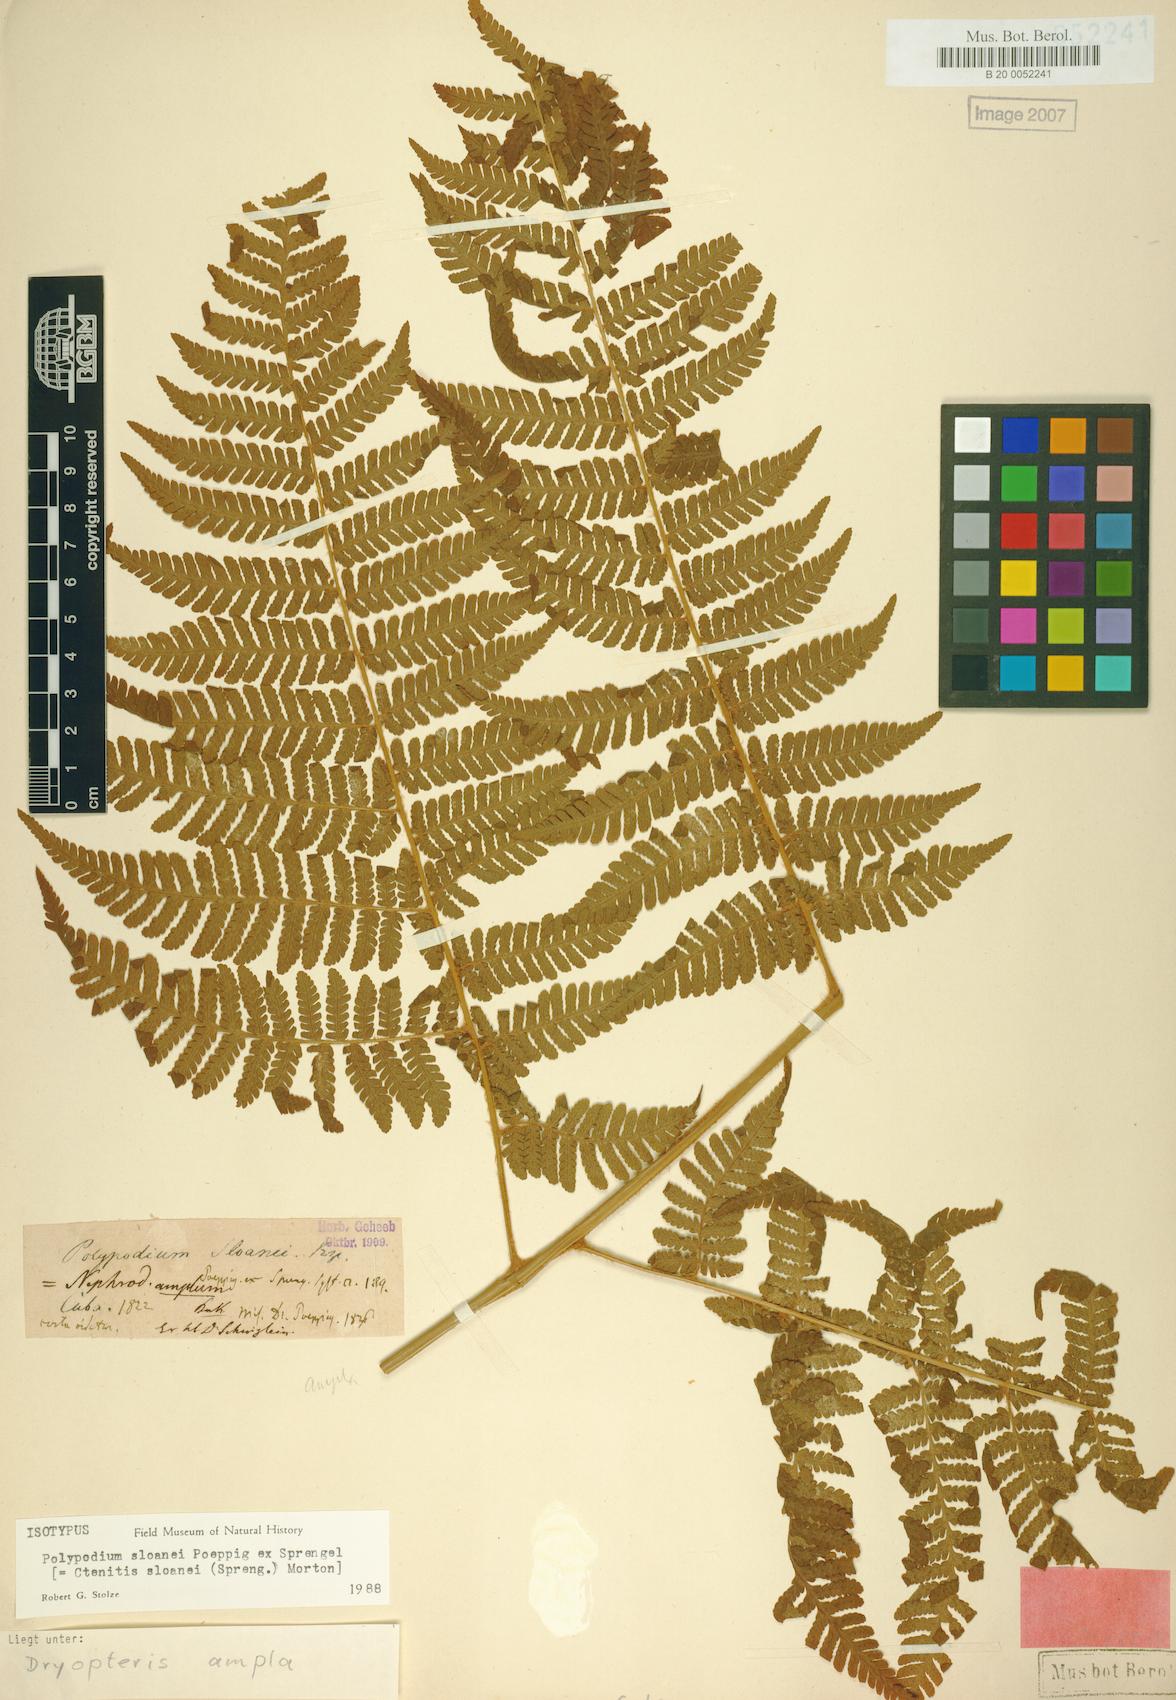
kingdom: Plantae
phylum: Tracheophyta
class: Polypodiopsida
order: Polypodiales
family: Dryopteridaceae
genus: Ctenitis
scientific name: Ctenitis sloanei
